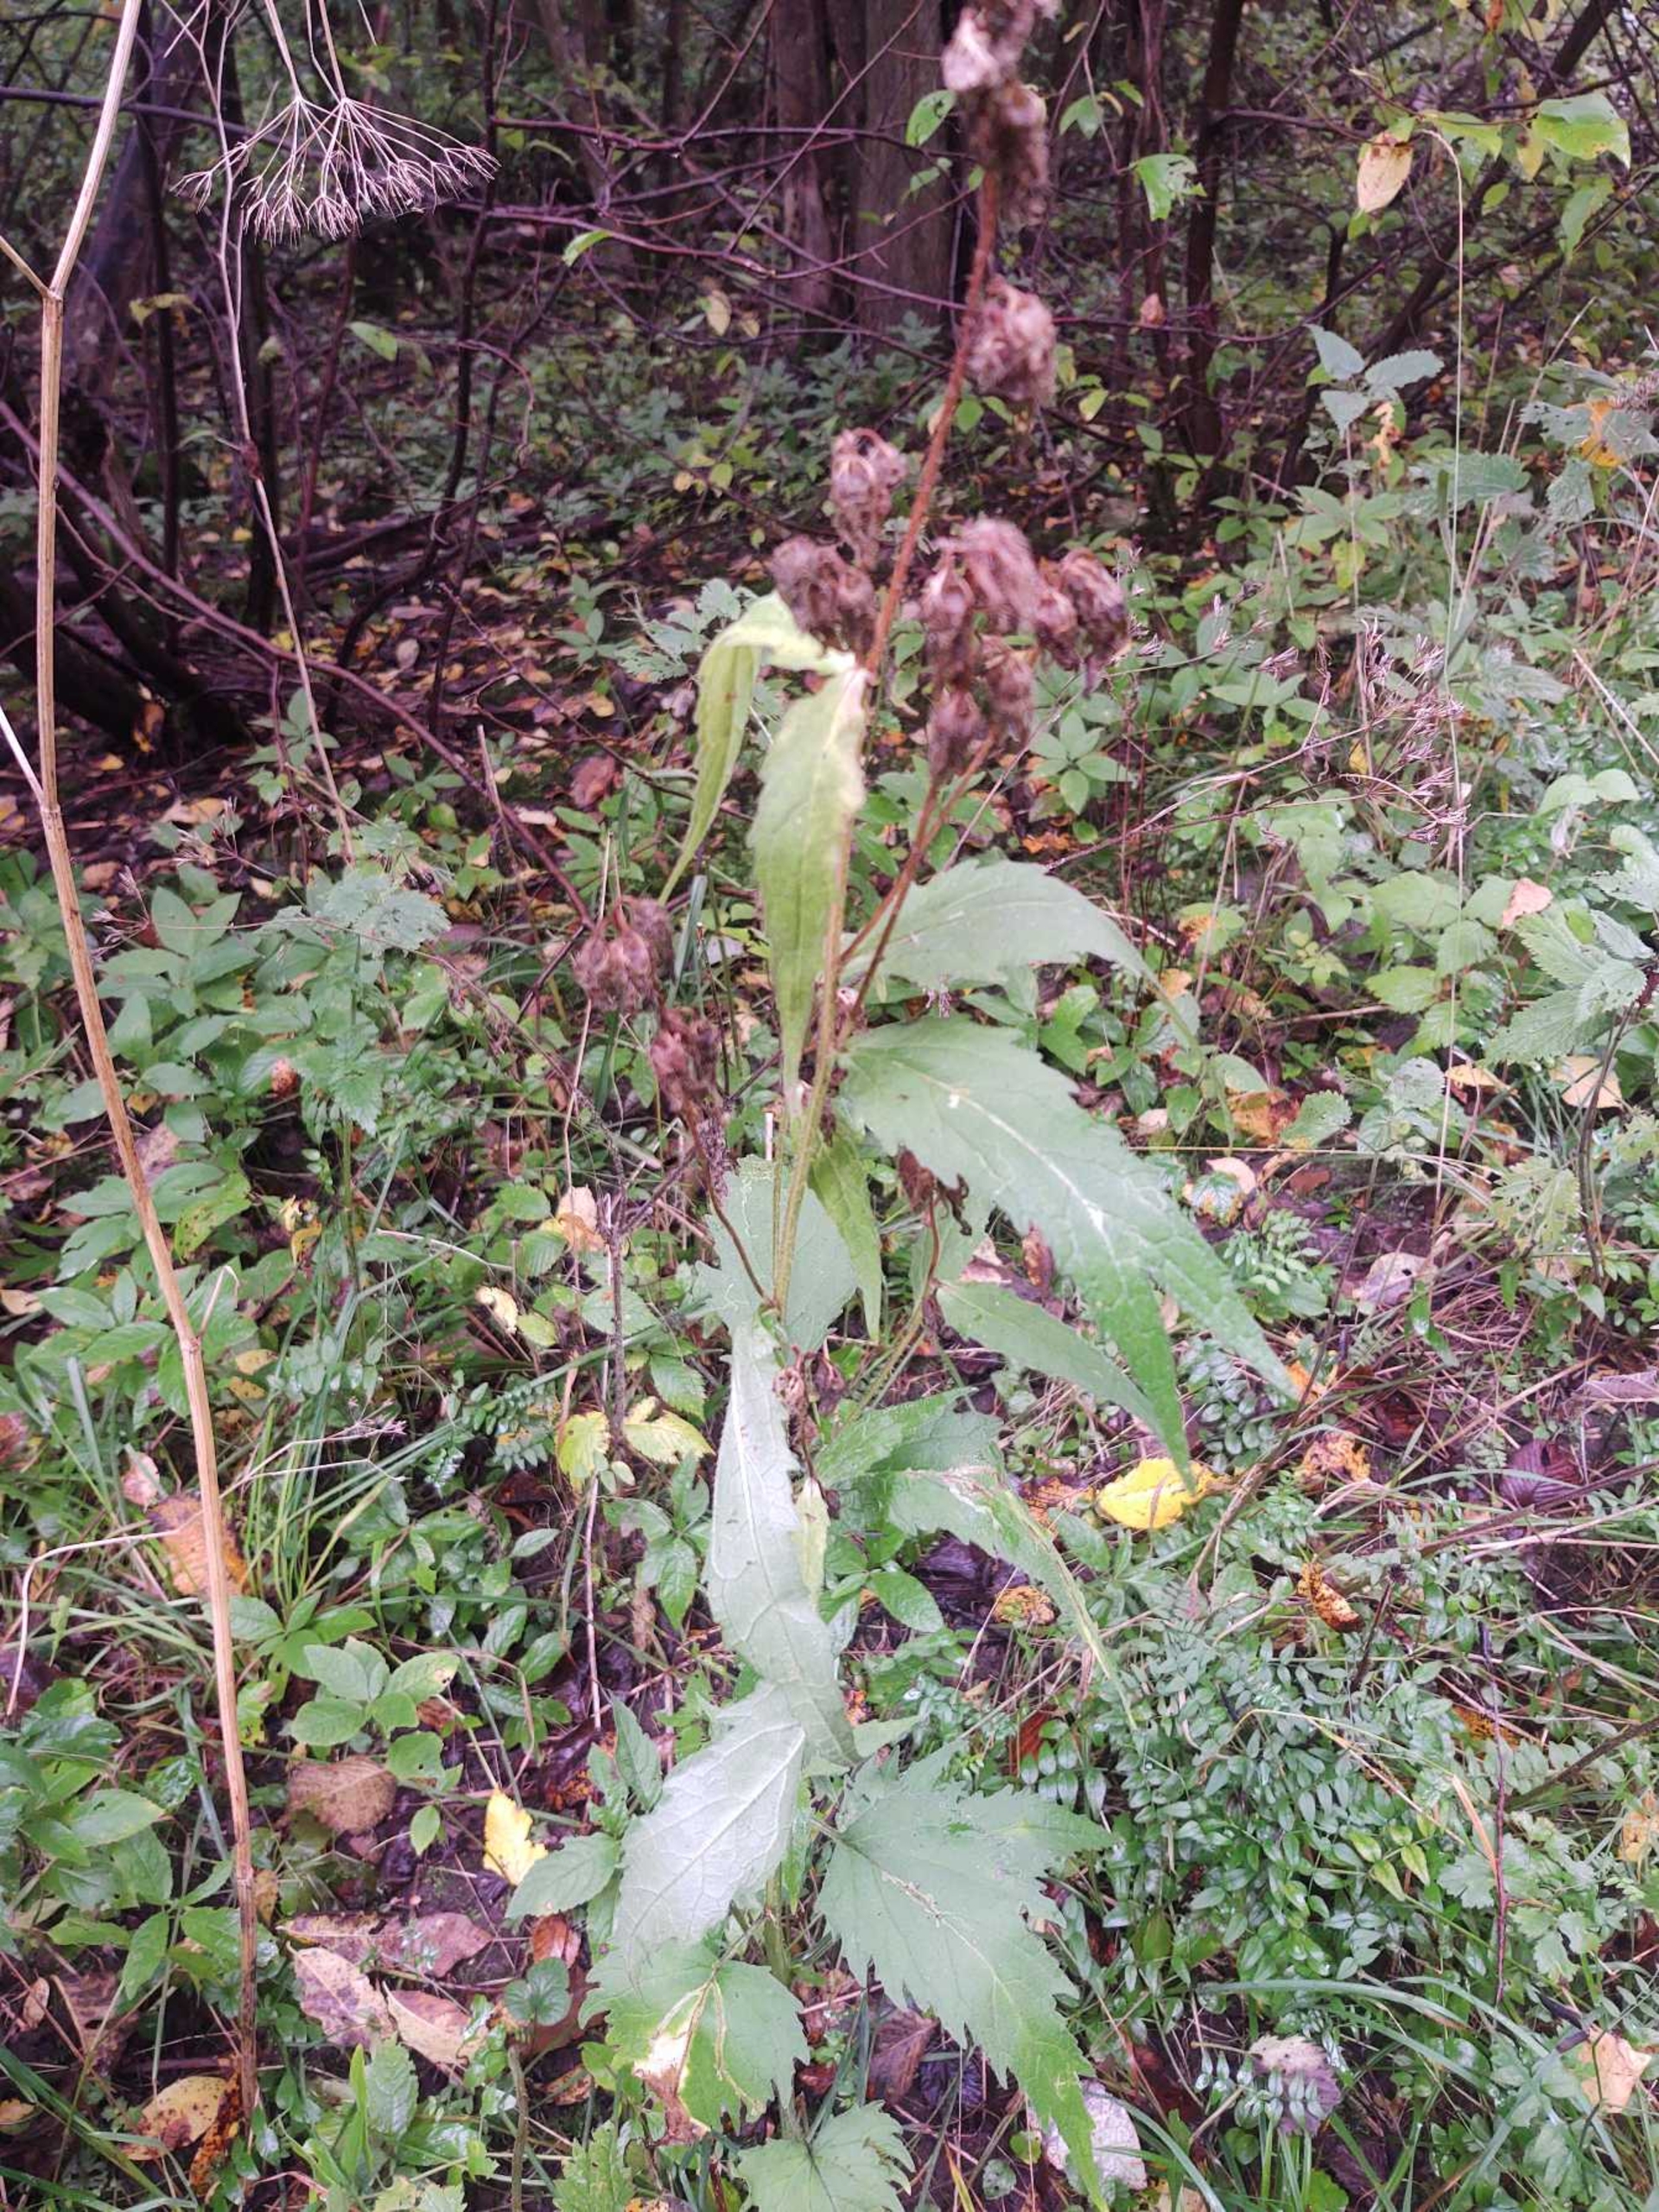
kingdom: Plantae
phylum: Tracheophyta
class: Magnoliopsida
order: Asterales
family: Campanulaceae
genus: Campanula
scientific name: Campanula trachelium
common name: Nælde-klokke
